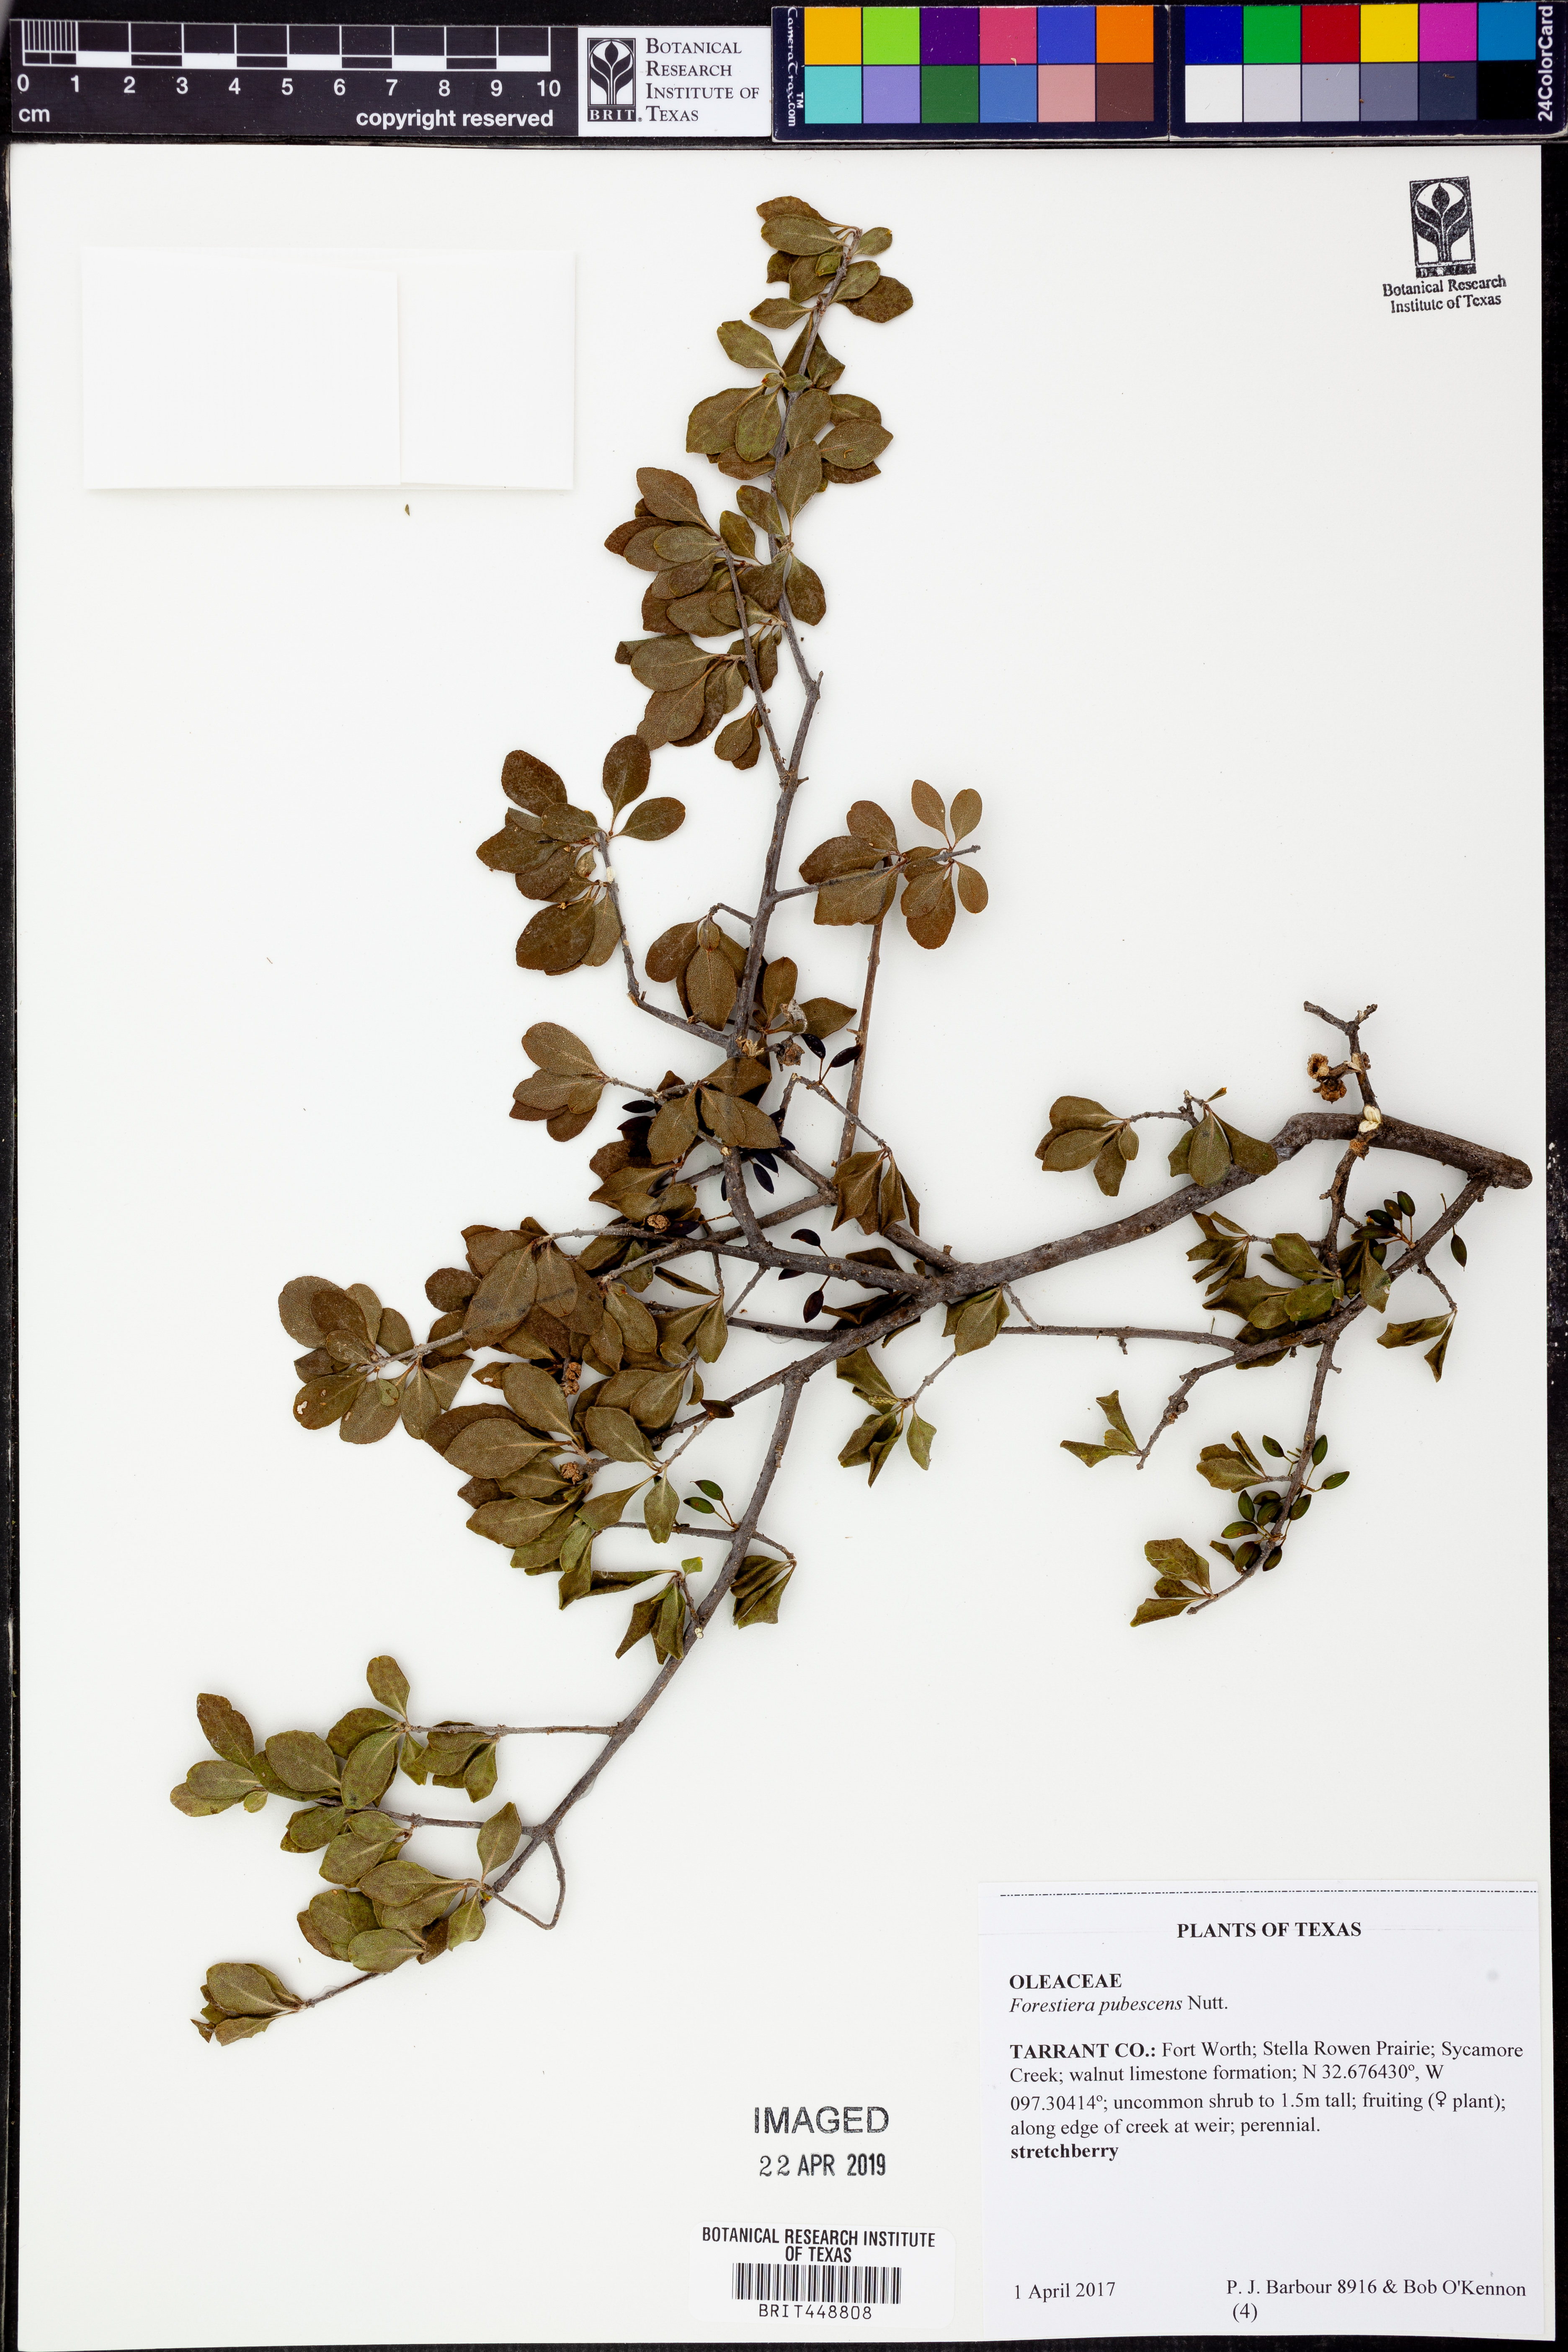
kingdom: Plantae
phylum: Tracheophyta
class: Magnoliopsida
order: Lamiales
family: Oleaceae
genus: Forestiera
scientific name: Forestiera pubescens
